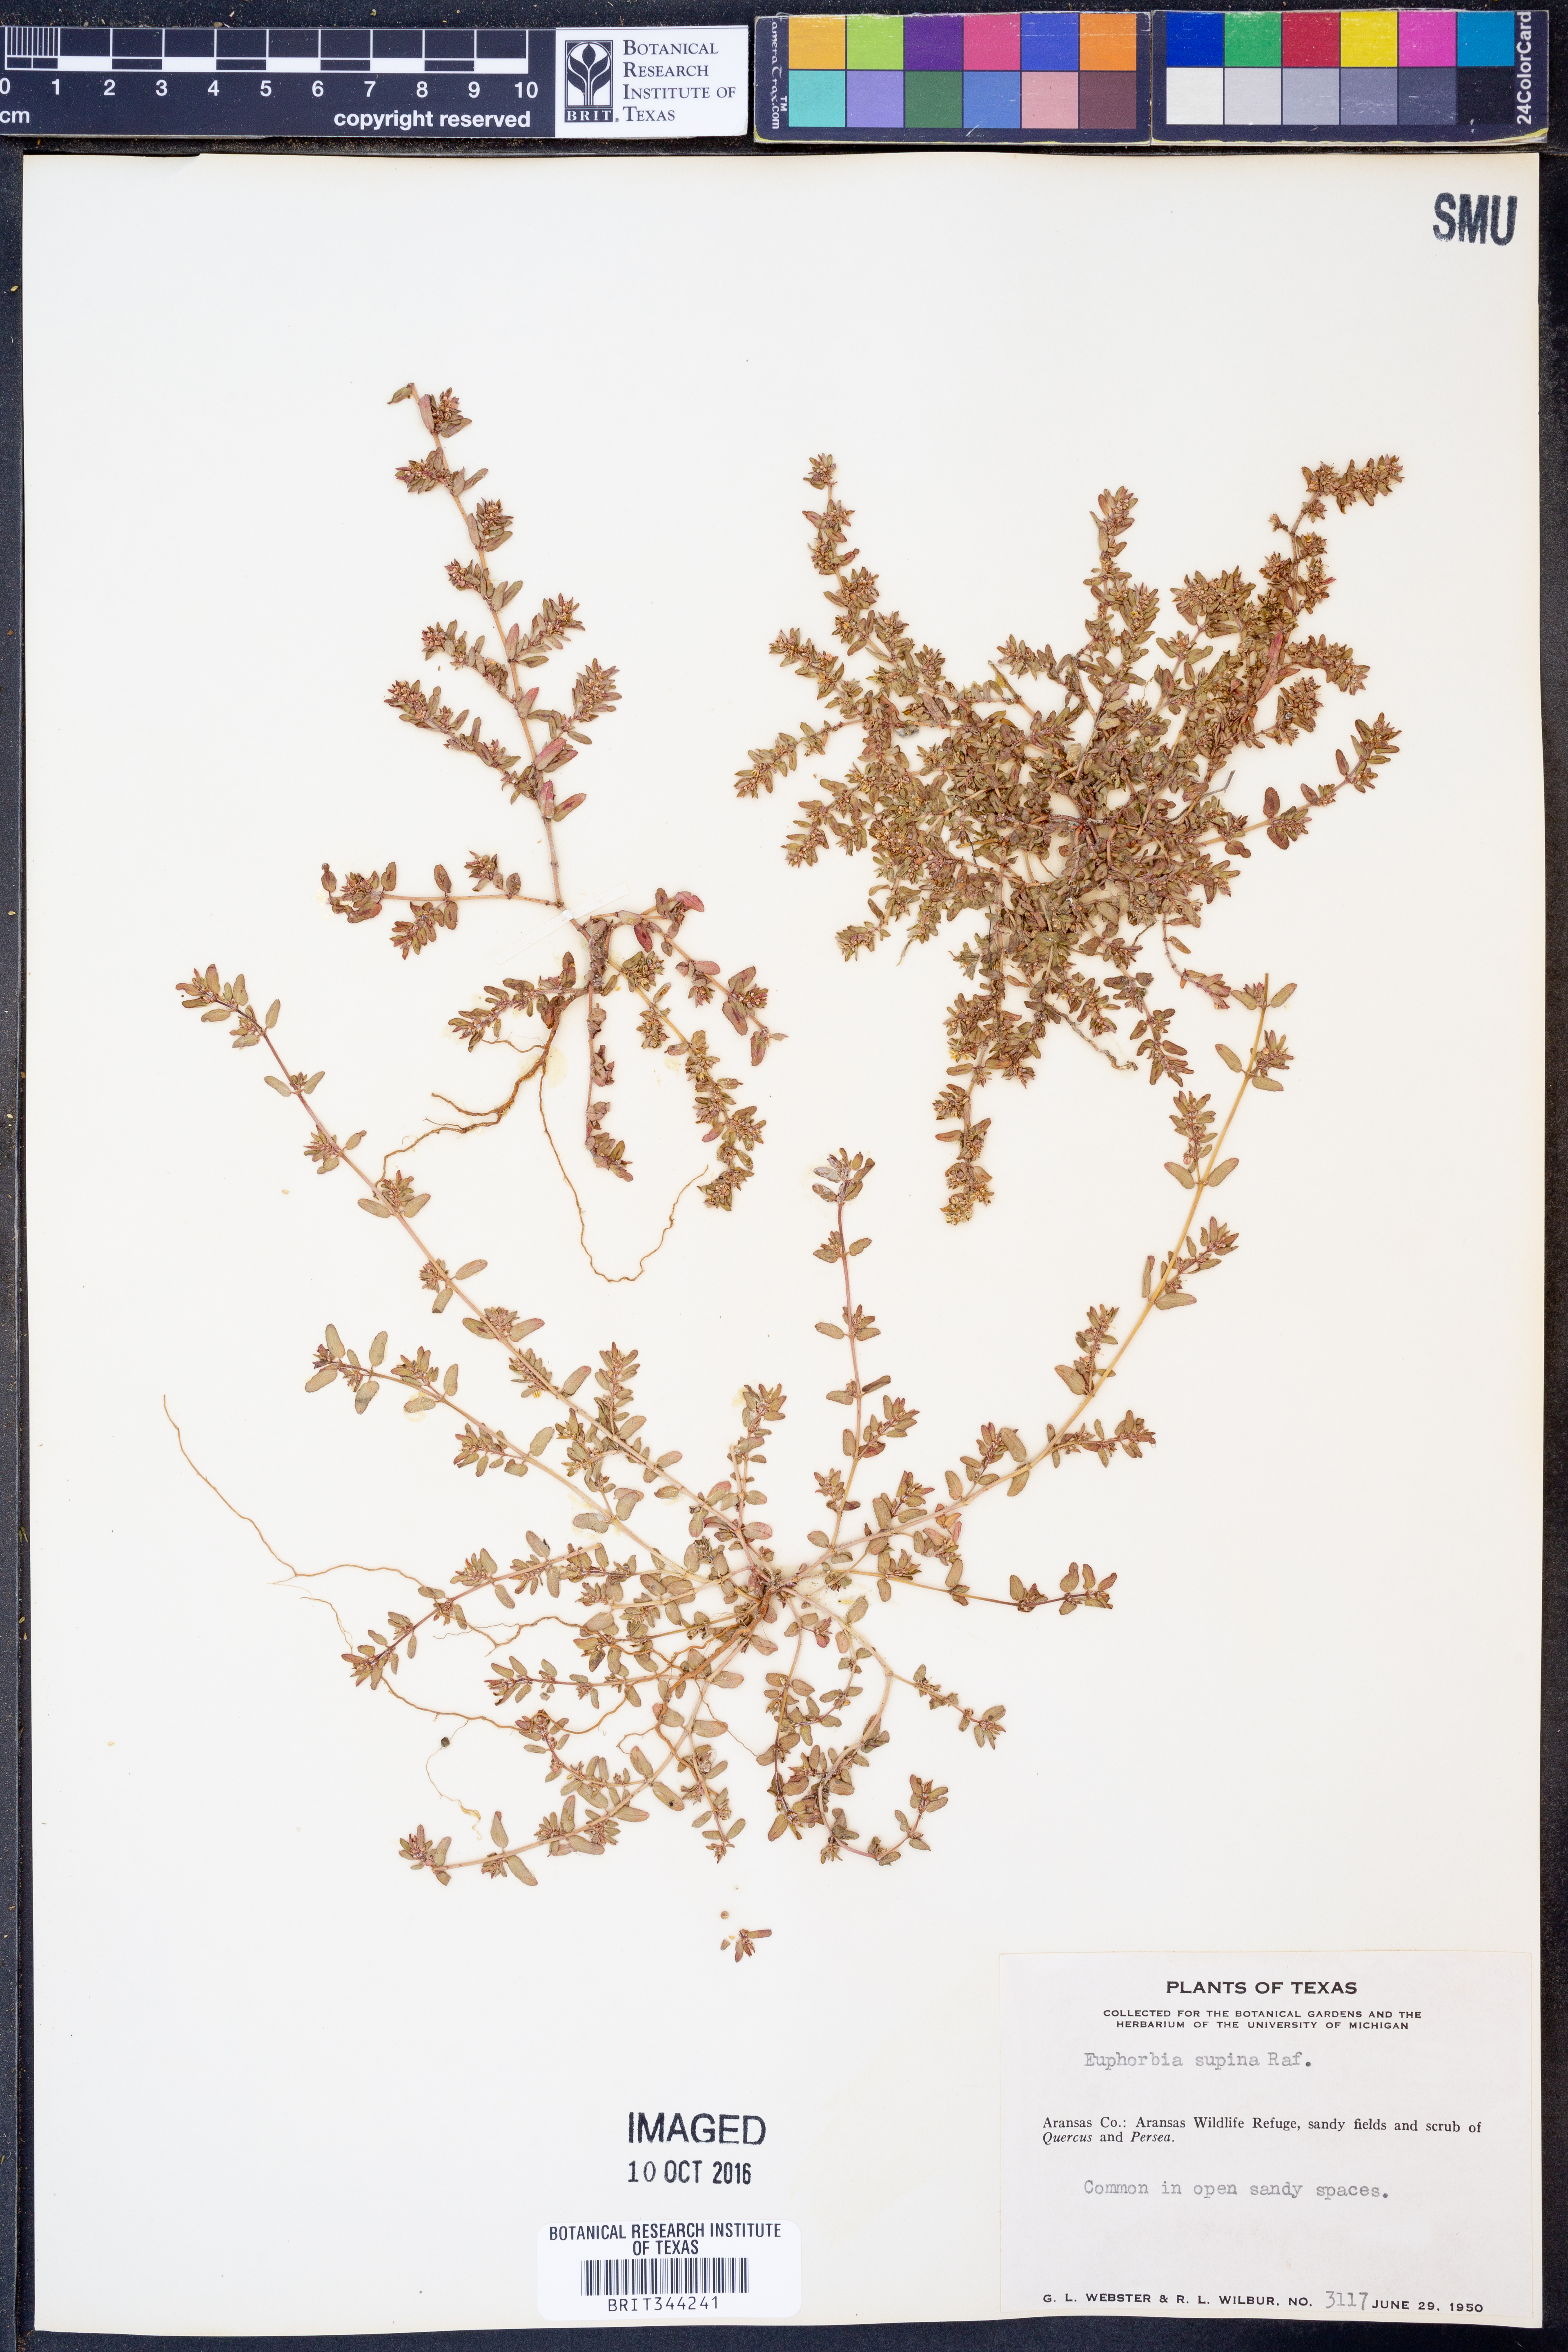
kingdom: Plantae
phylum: Tracheophyta
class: Magnoliopsida
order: Malpighiales
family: Euphorbiaceae
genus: Euphorbia
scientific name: Euphorbia maculata
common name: Spotted spurge
